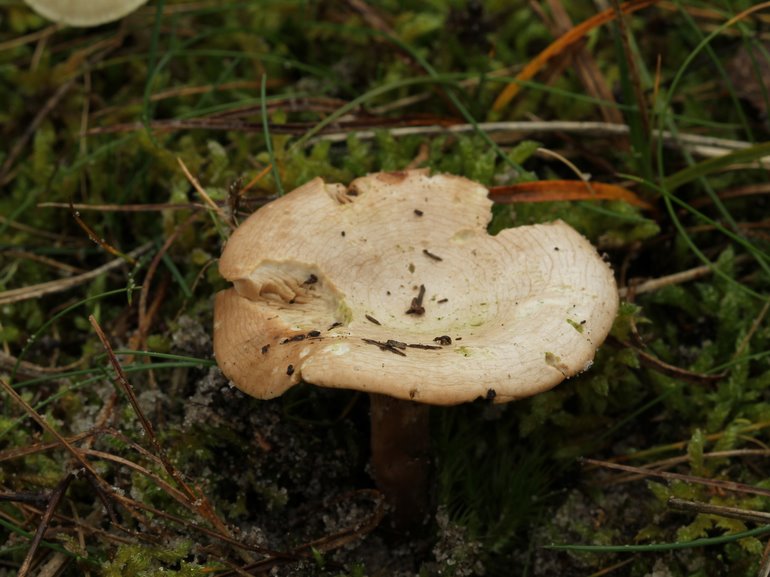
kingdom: Fungi
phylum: Basidiomycota
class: Agaricomycetes
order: Agaricales
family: Tricholomataceae
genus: Lulesia
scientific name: Lulesia
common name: sortnende troldhat
